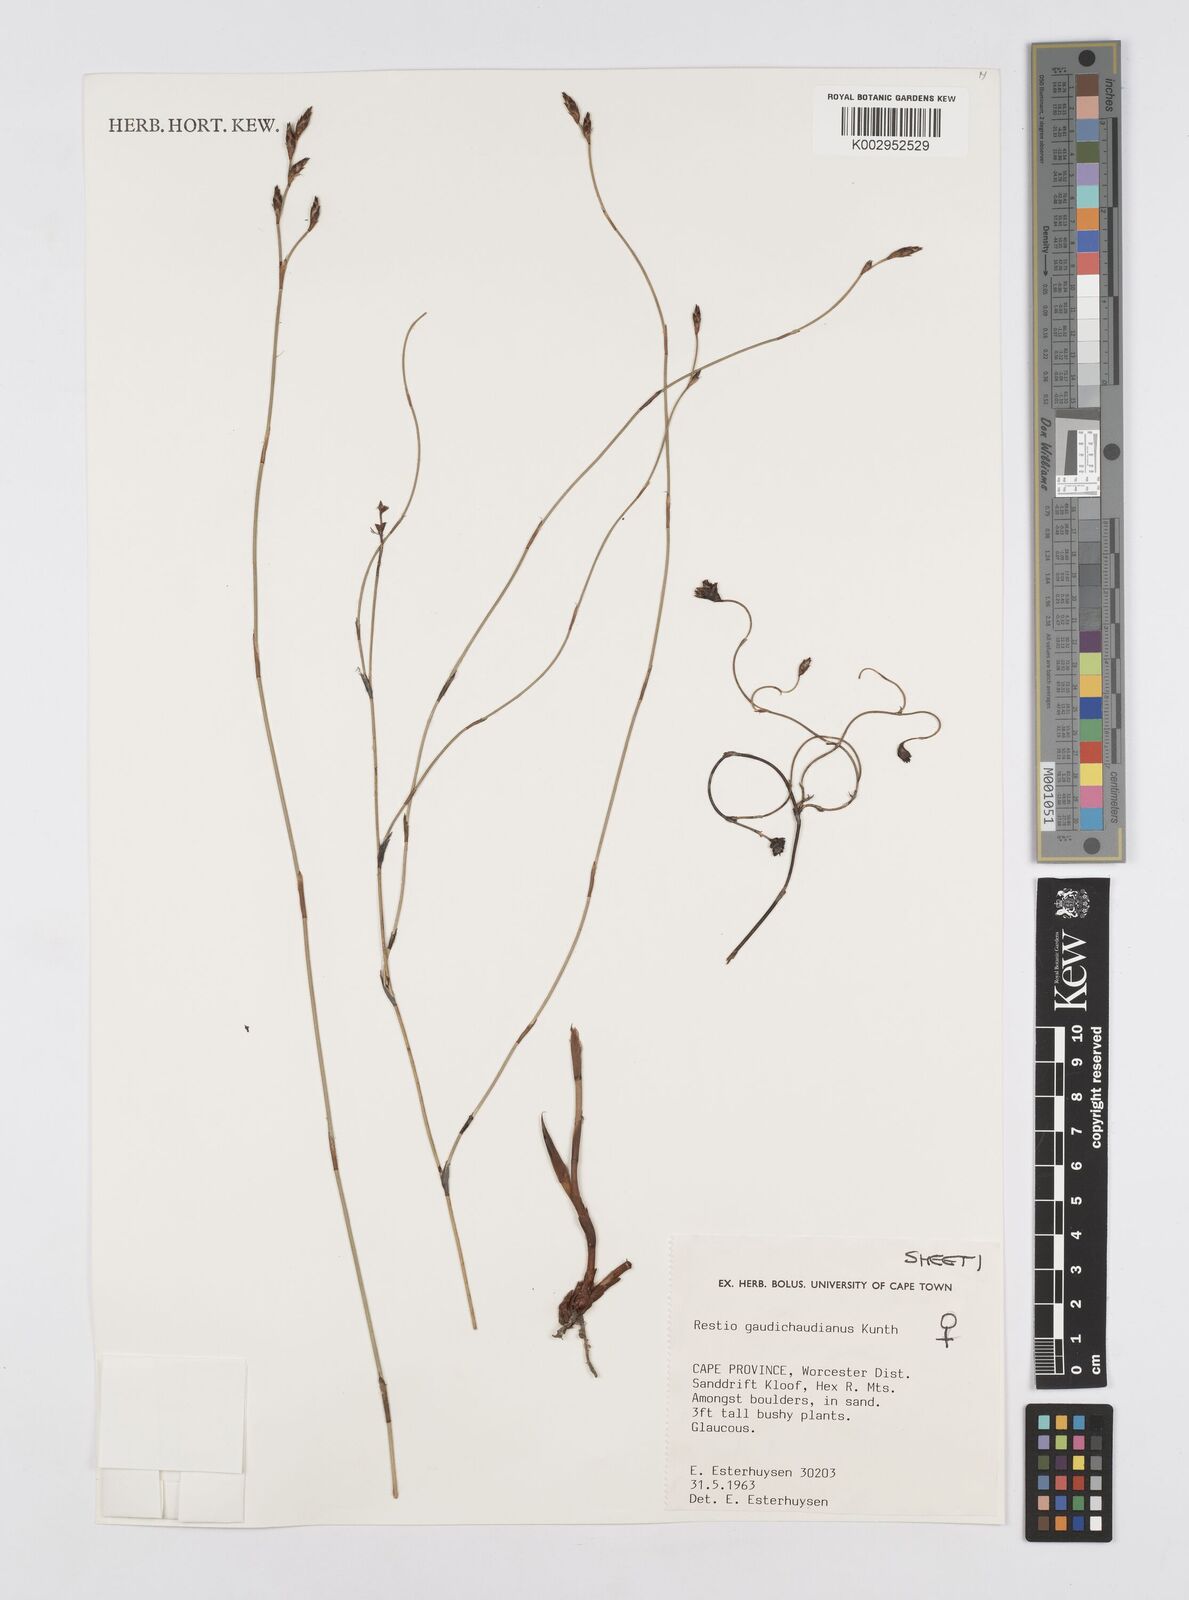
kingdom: Plantae
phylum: Tracheophyta
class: Liliopsida
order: Poales
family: Restionaceae
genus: Restio
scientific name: Restio gaudichaudianus
